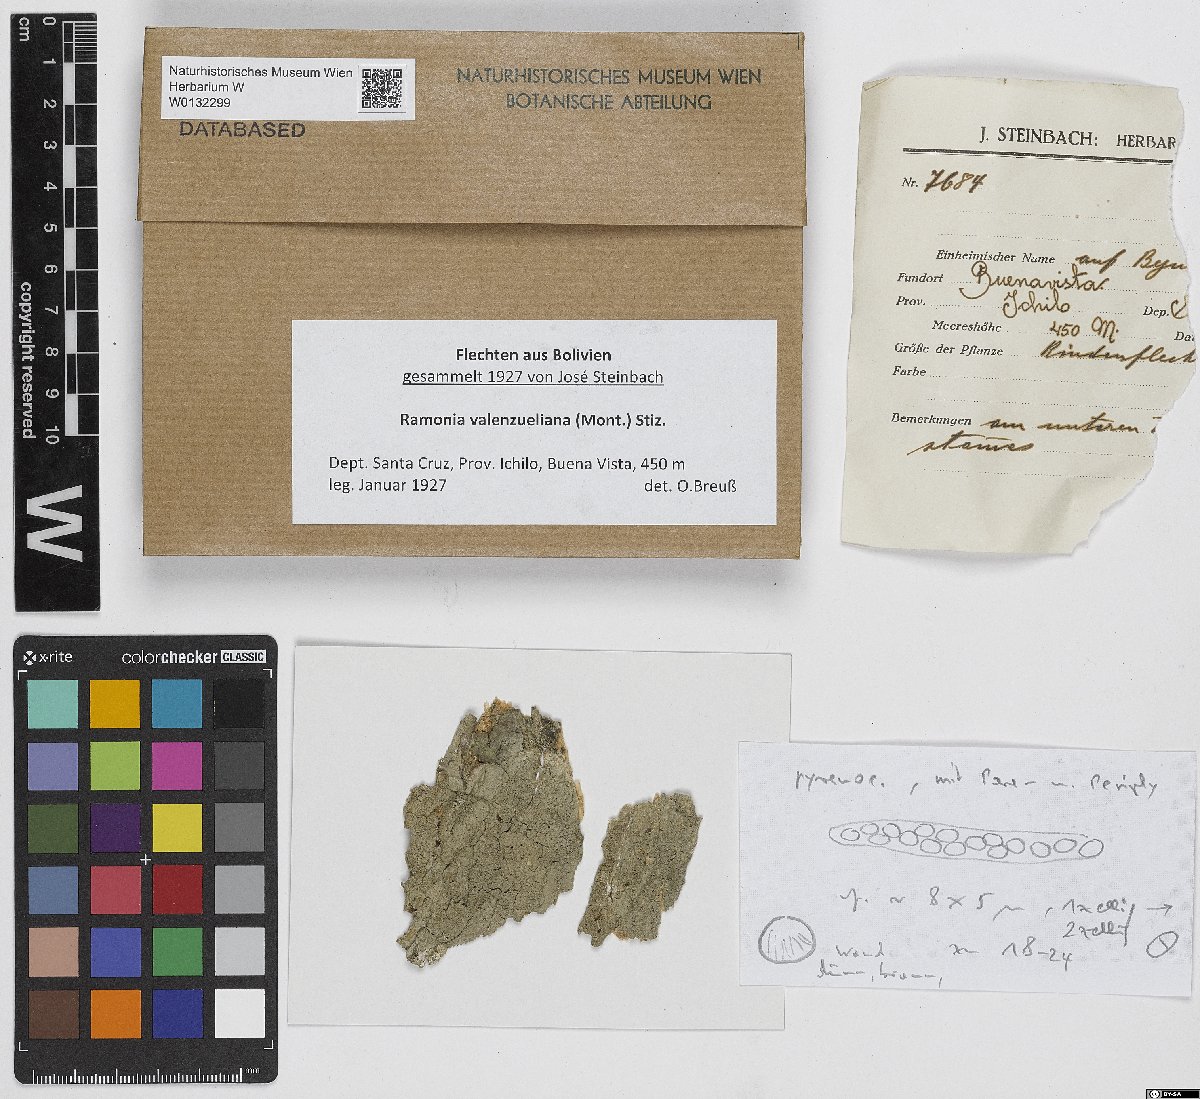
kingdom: Fungi
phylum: Ascomycota
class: Lecanoromycetes
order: Gyalectales
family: Gyalectaceae
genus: Ramonia
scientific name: Ramonia valenzueliana
